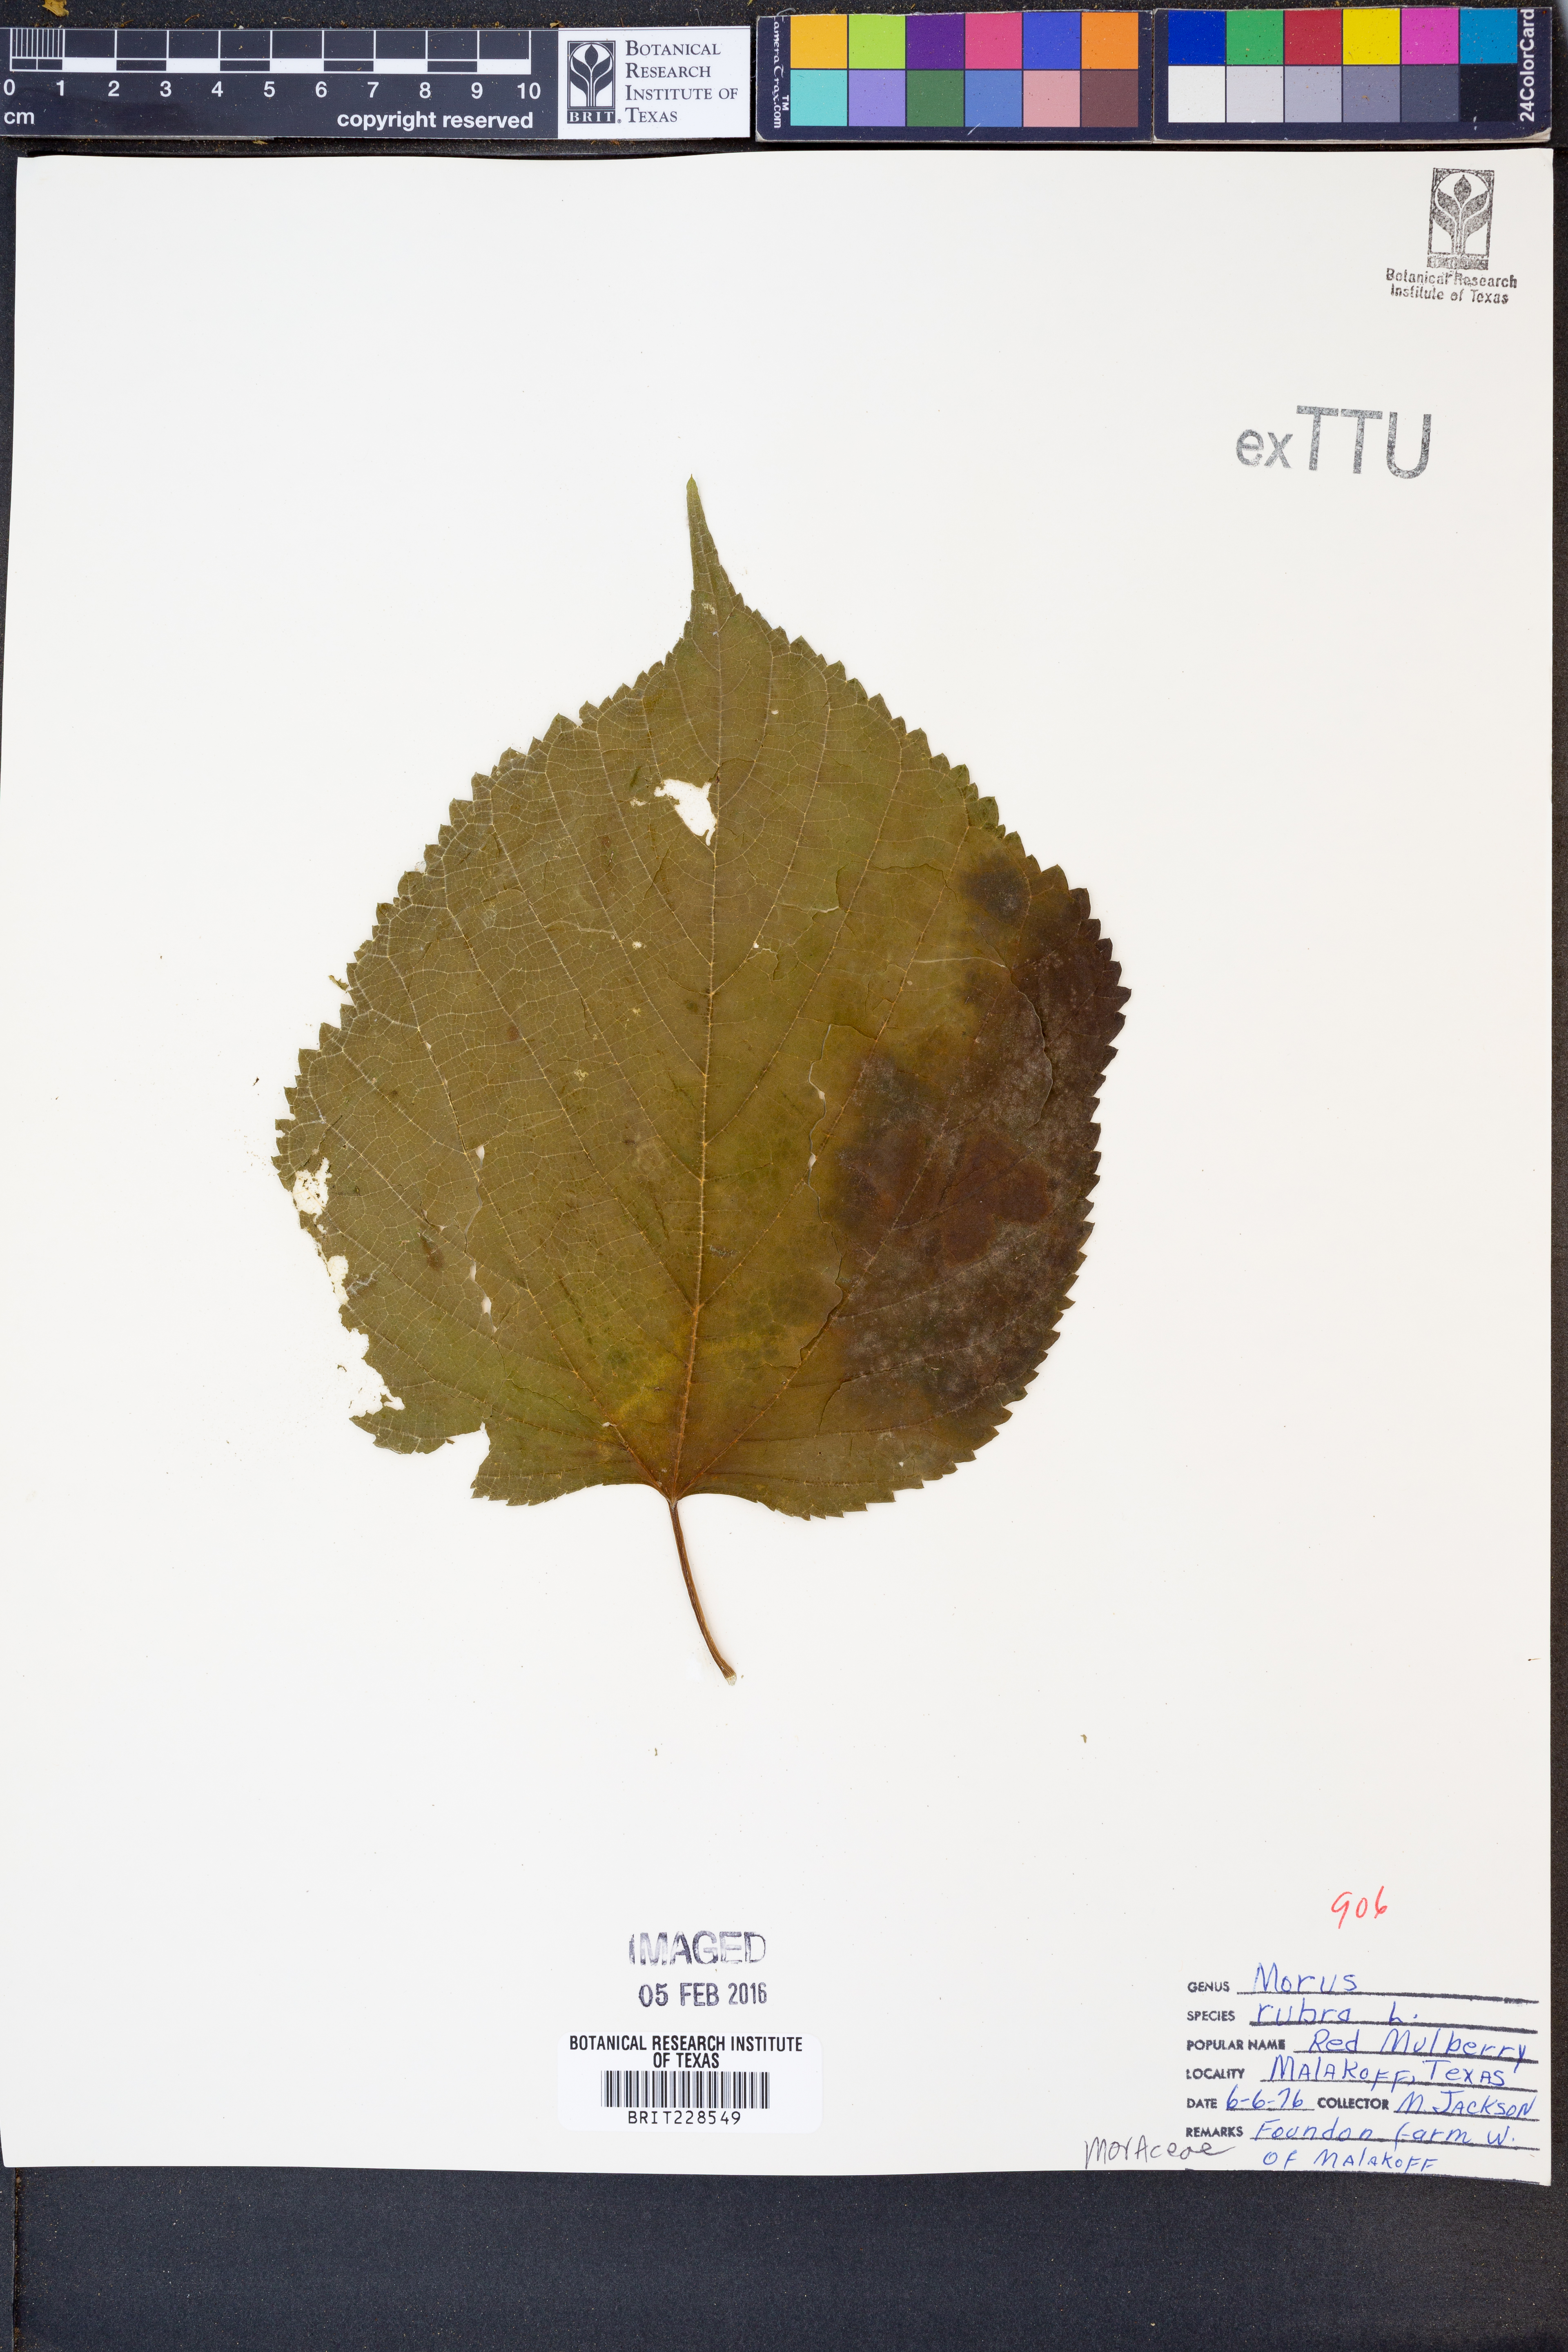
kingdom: Plantae
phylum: Tracheophyta
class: Magnoliopsida
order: Rosales
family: Moraceae
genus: Morus
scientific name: Morus rubra
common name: Red mulberry
